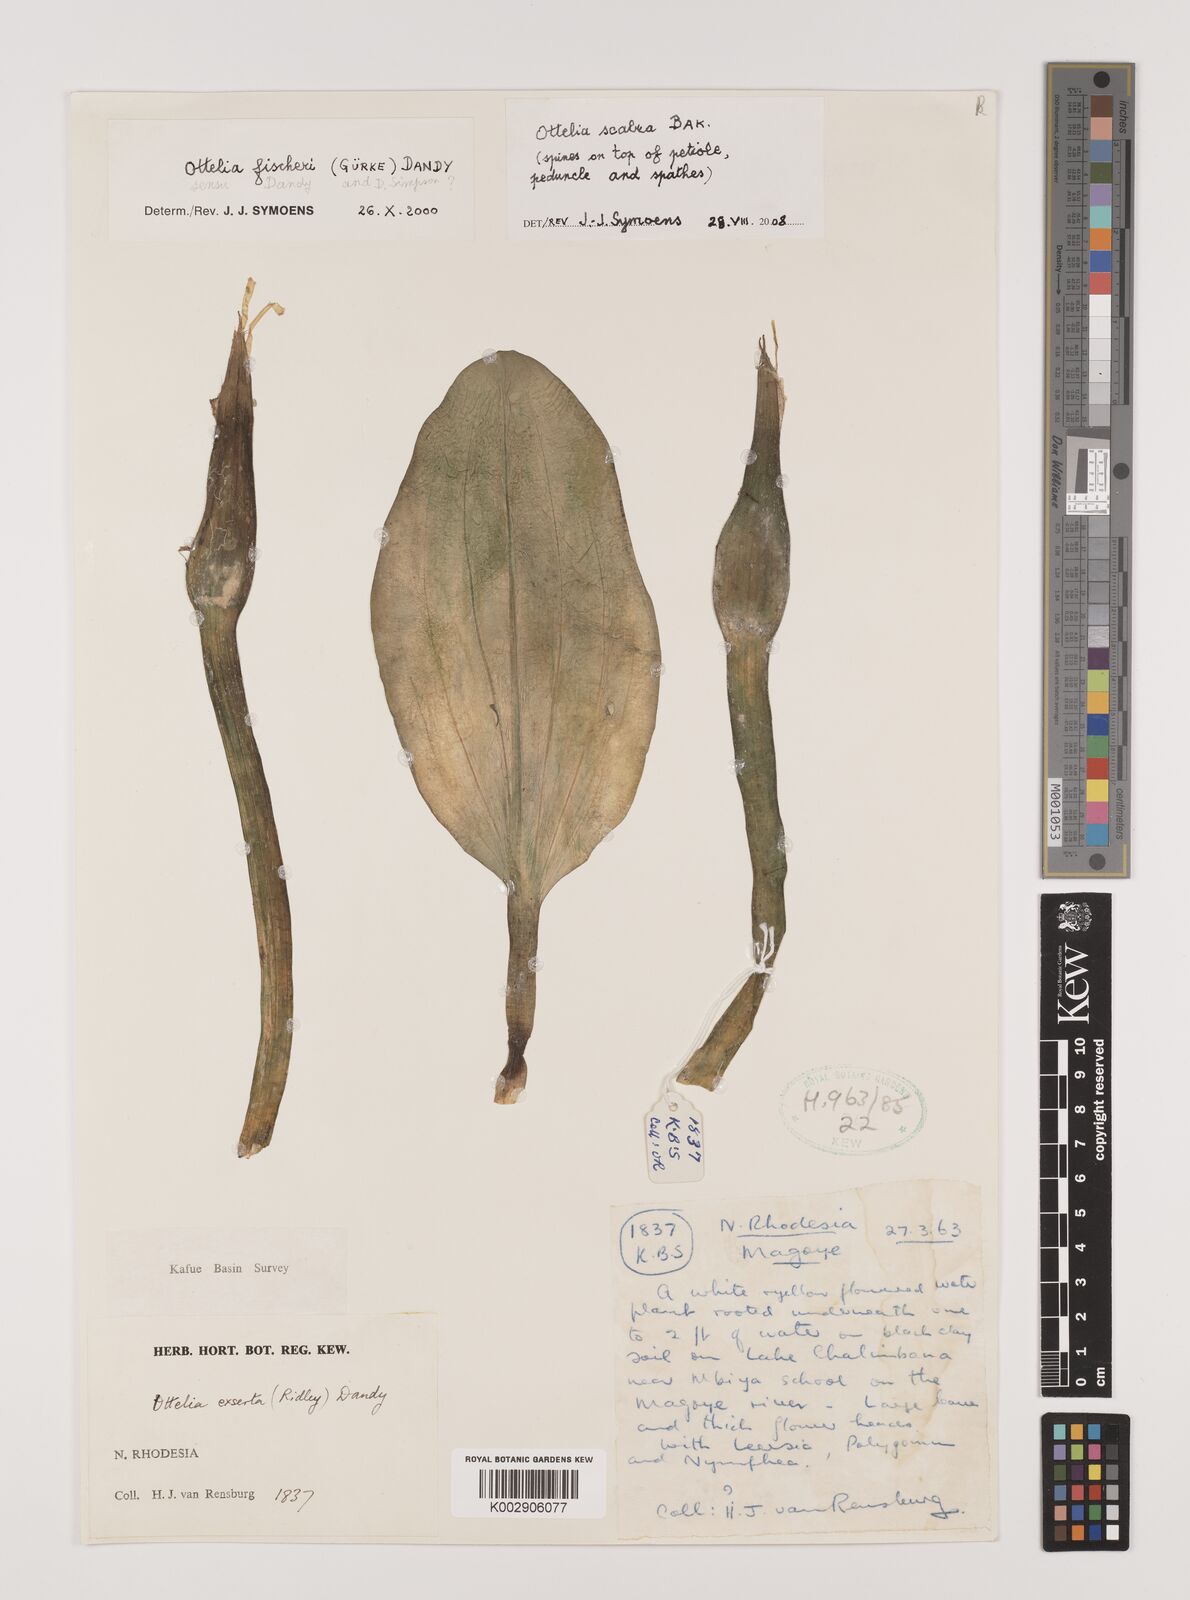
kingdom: Plantae
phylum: Tracheophyta
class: Liliopsida
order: Alismatales
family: Hydrocharitaceae
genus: Ottelia
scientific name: Ottelia scabra
